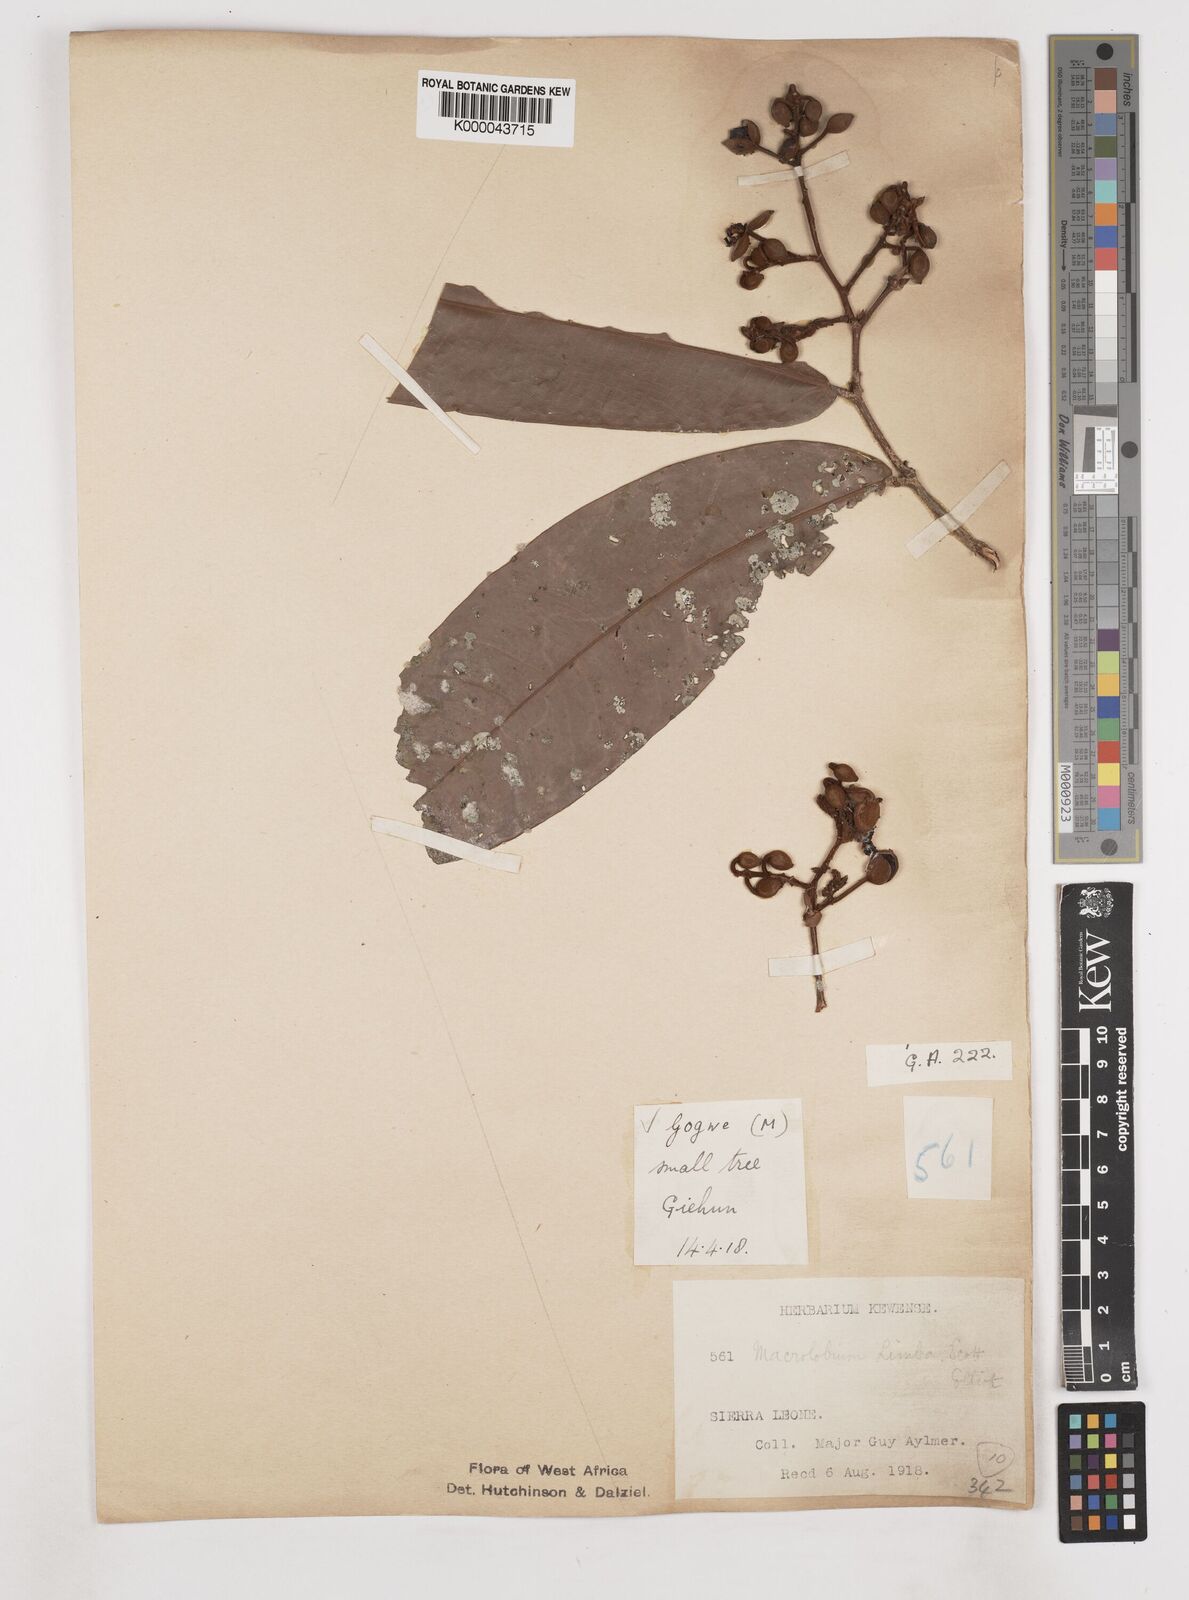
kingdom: Plantae
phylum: Tracheophyta
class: Magnoliopsida
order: Fabales
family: Fabaceae
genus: Gilbertiodendron
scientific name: Gilbertiodendron
